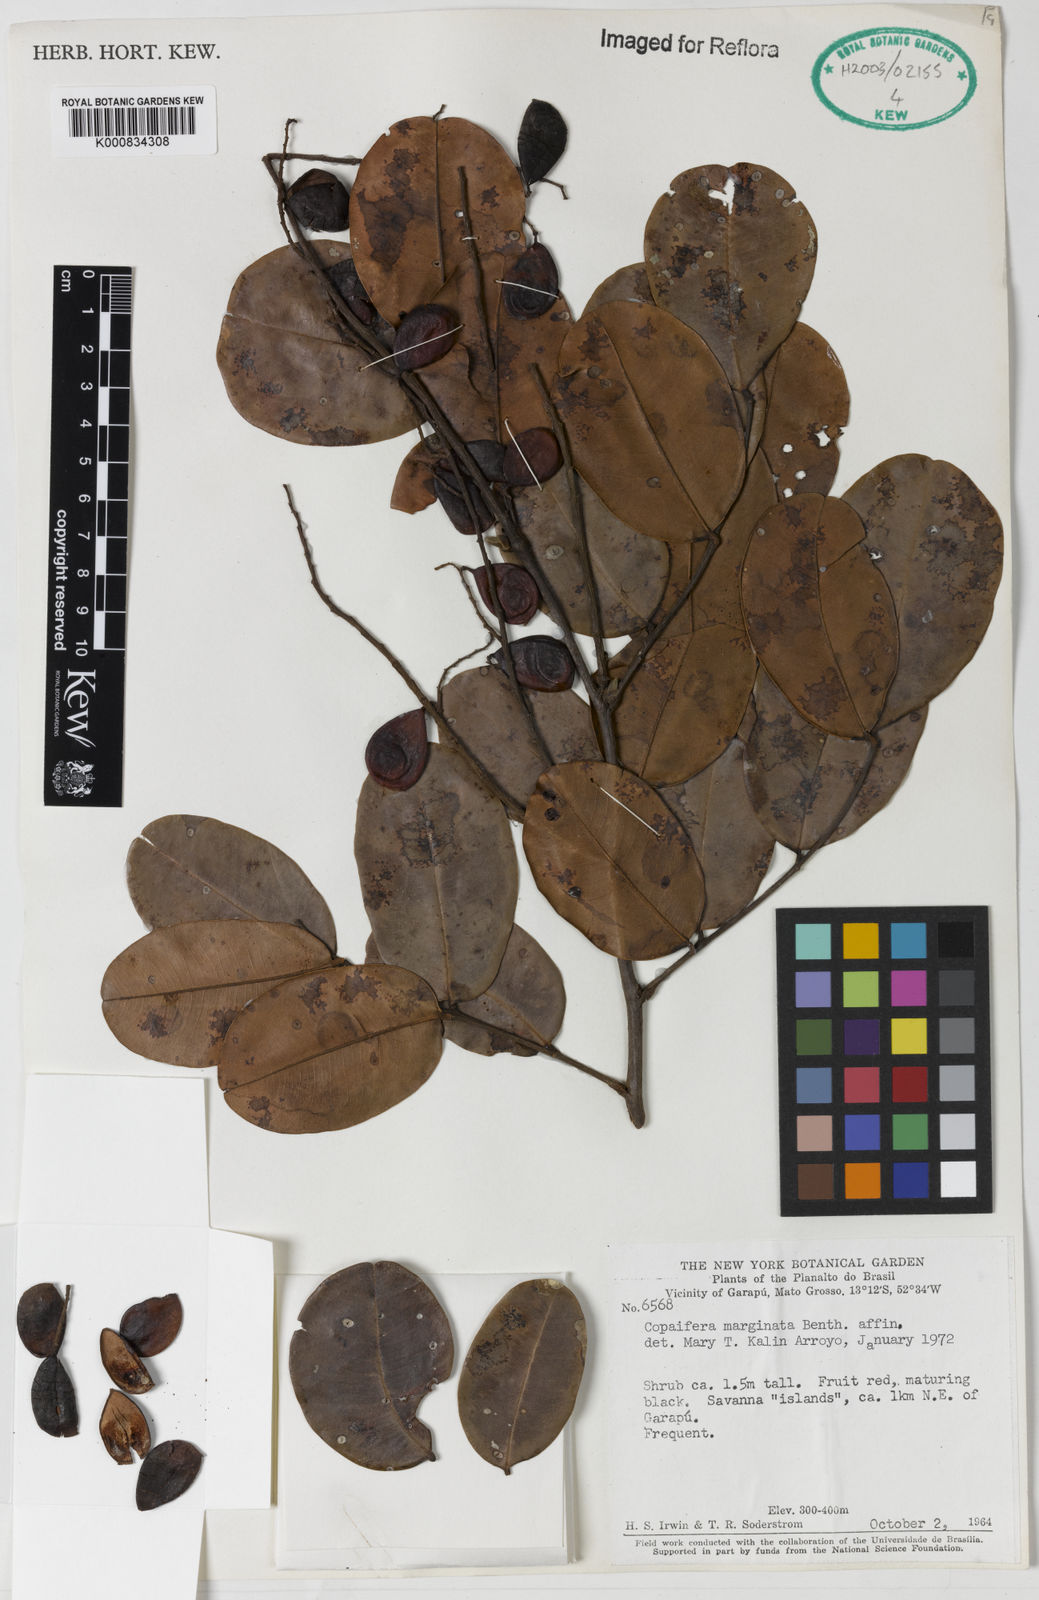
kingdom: Plantae
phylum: Tracheophyta
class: Magnoliopsida
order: Fabales
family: Fabaceae
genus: Copaifera
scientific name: Copaifera marginata
